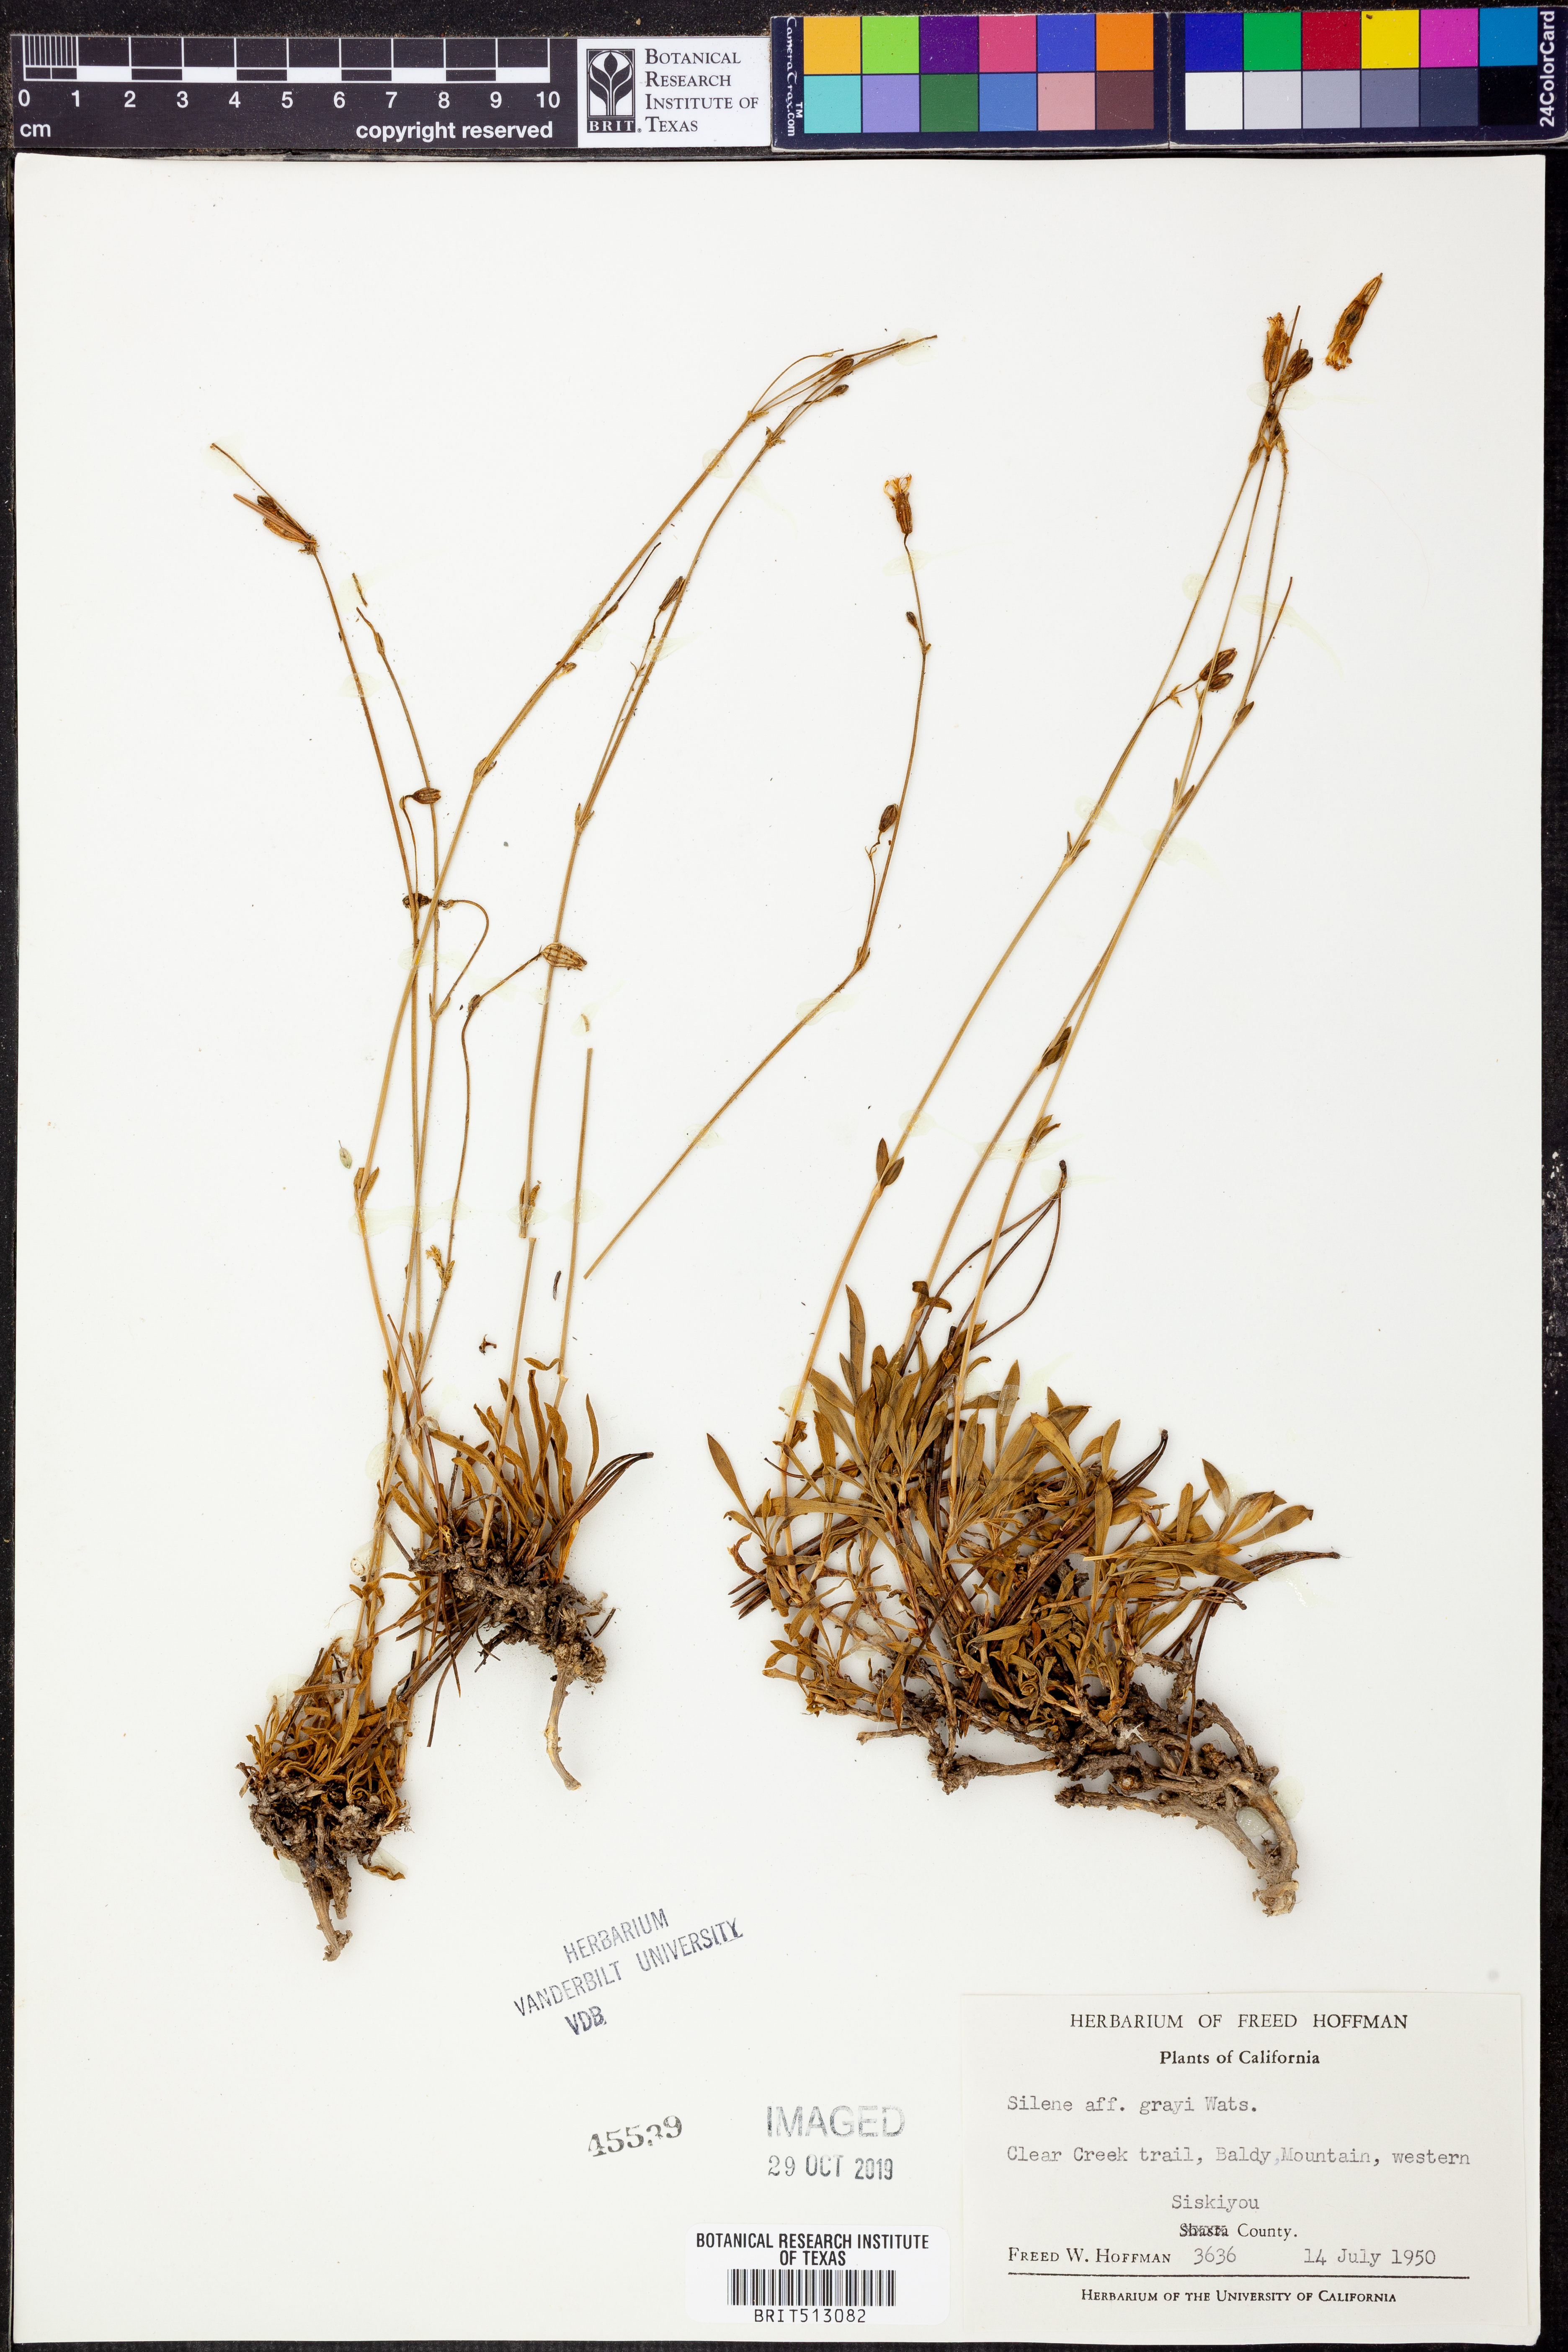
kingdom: Plantae
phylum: Tracheophyta
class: Magnoliopsida
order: Caryophyllales
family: Caryophyllaceae
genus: Silene
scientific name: Silene grayi
